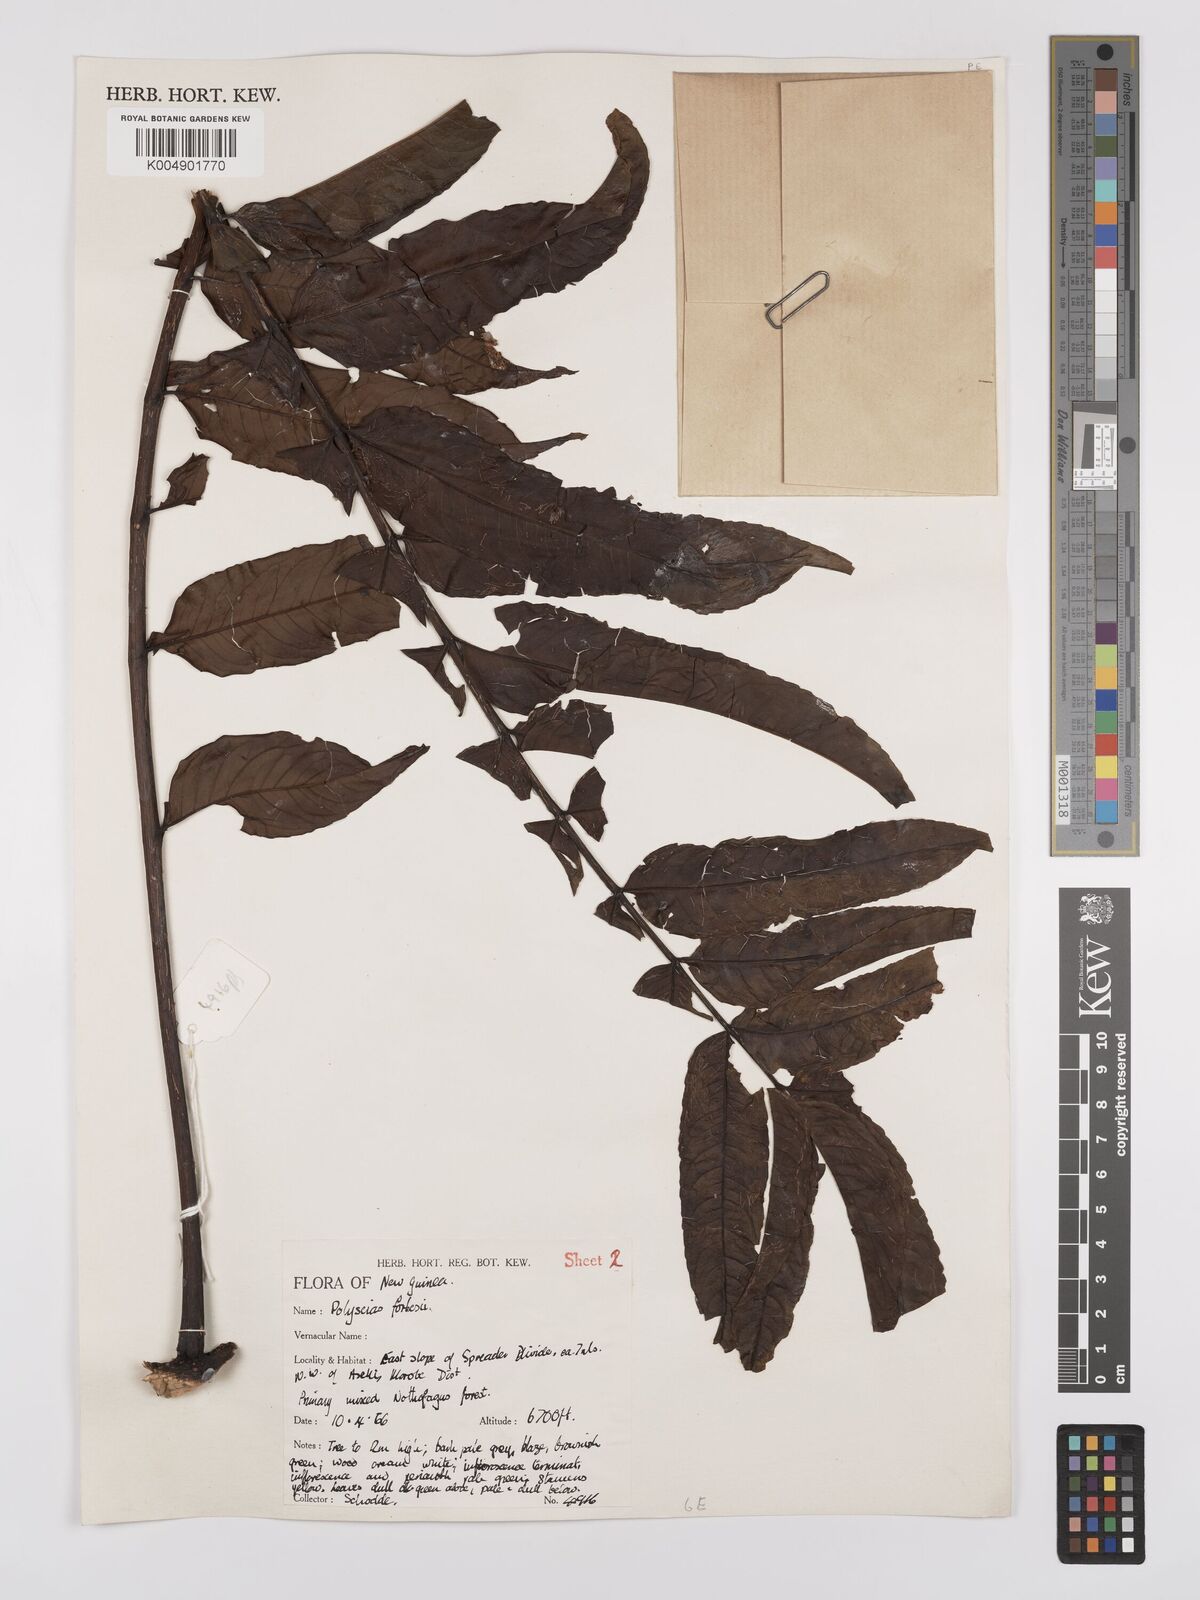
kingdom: Plantae
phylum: Tracheophyta
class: Magnoliopsida
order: Apiales
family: Araliaceae
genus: Polyscias
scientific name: Polyscias ledermannii
